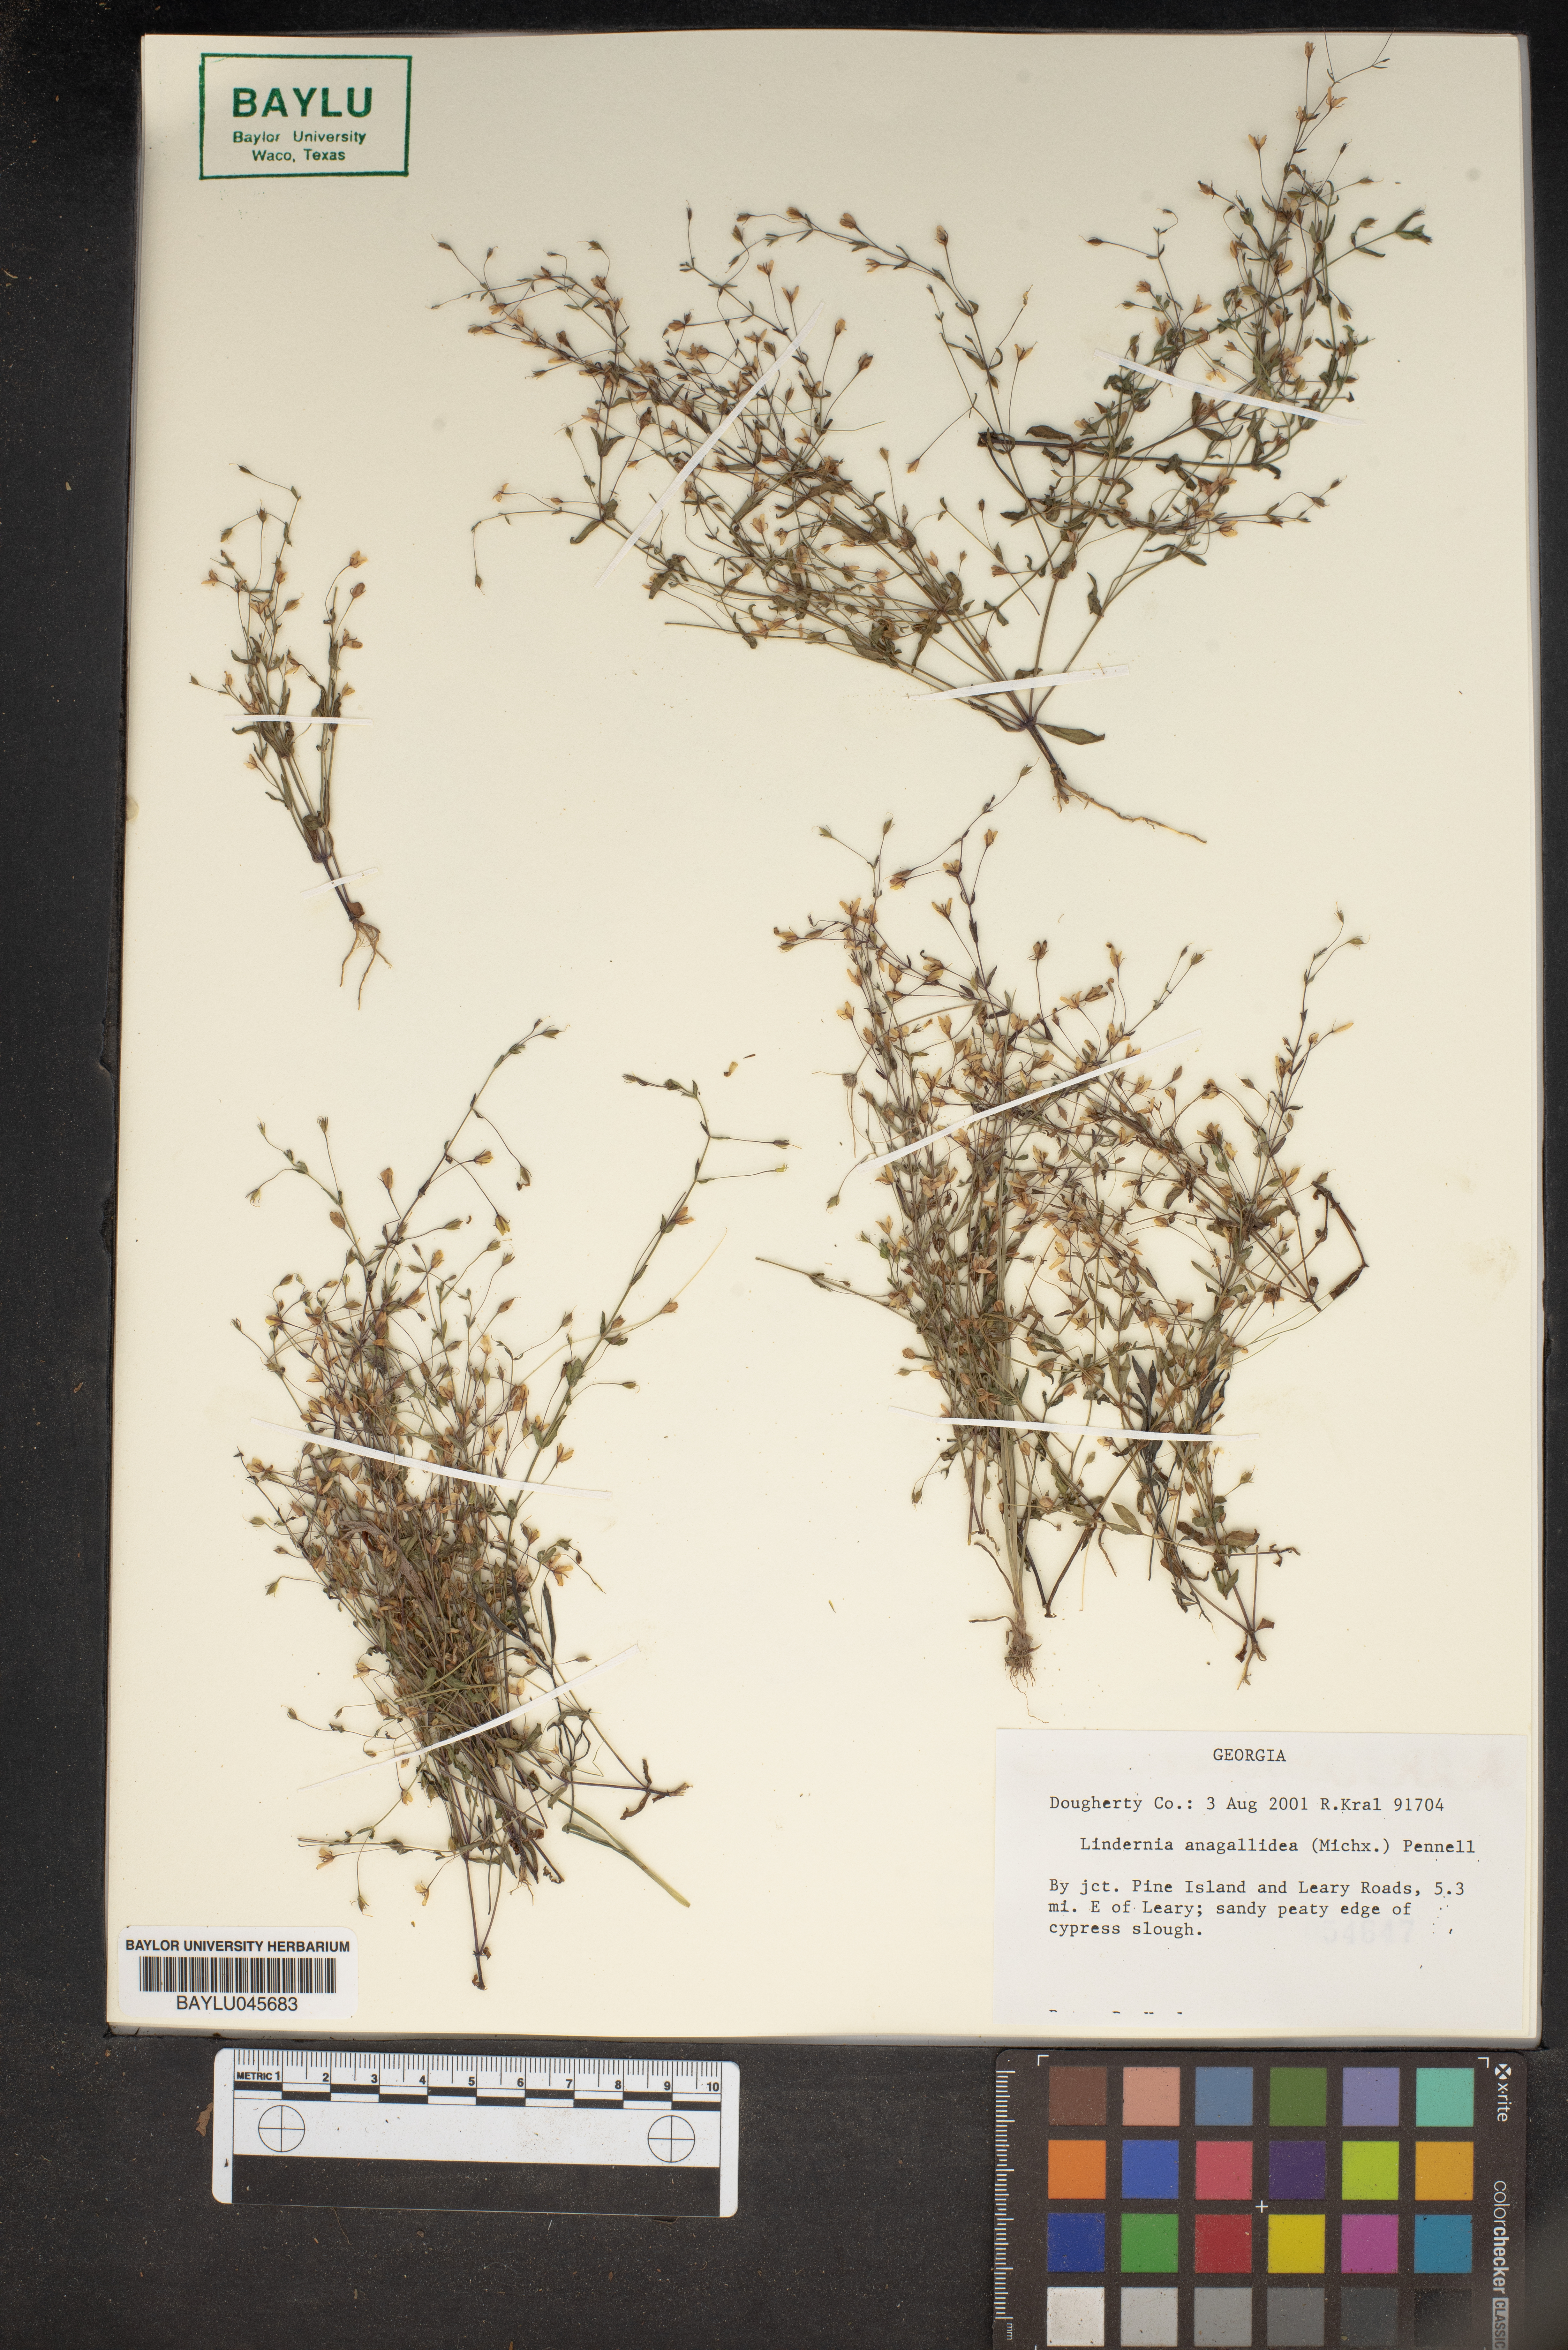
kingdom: Plantae
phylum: Tracheophyta
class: Magnoliopsida
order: Lamiales
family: Linderniaceae
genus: Lindernia
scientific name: Lindernia dubia
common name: Annual false pimpernel
